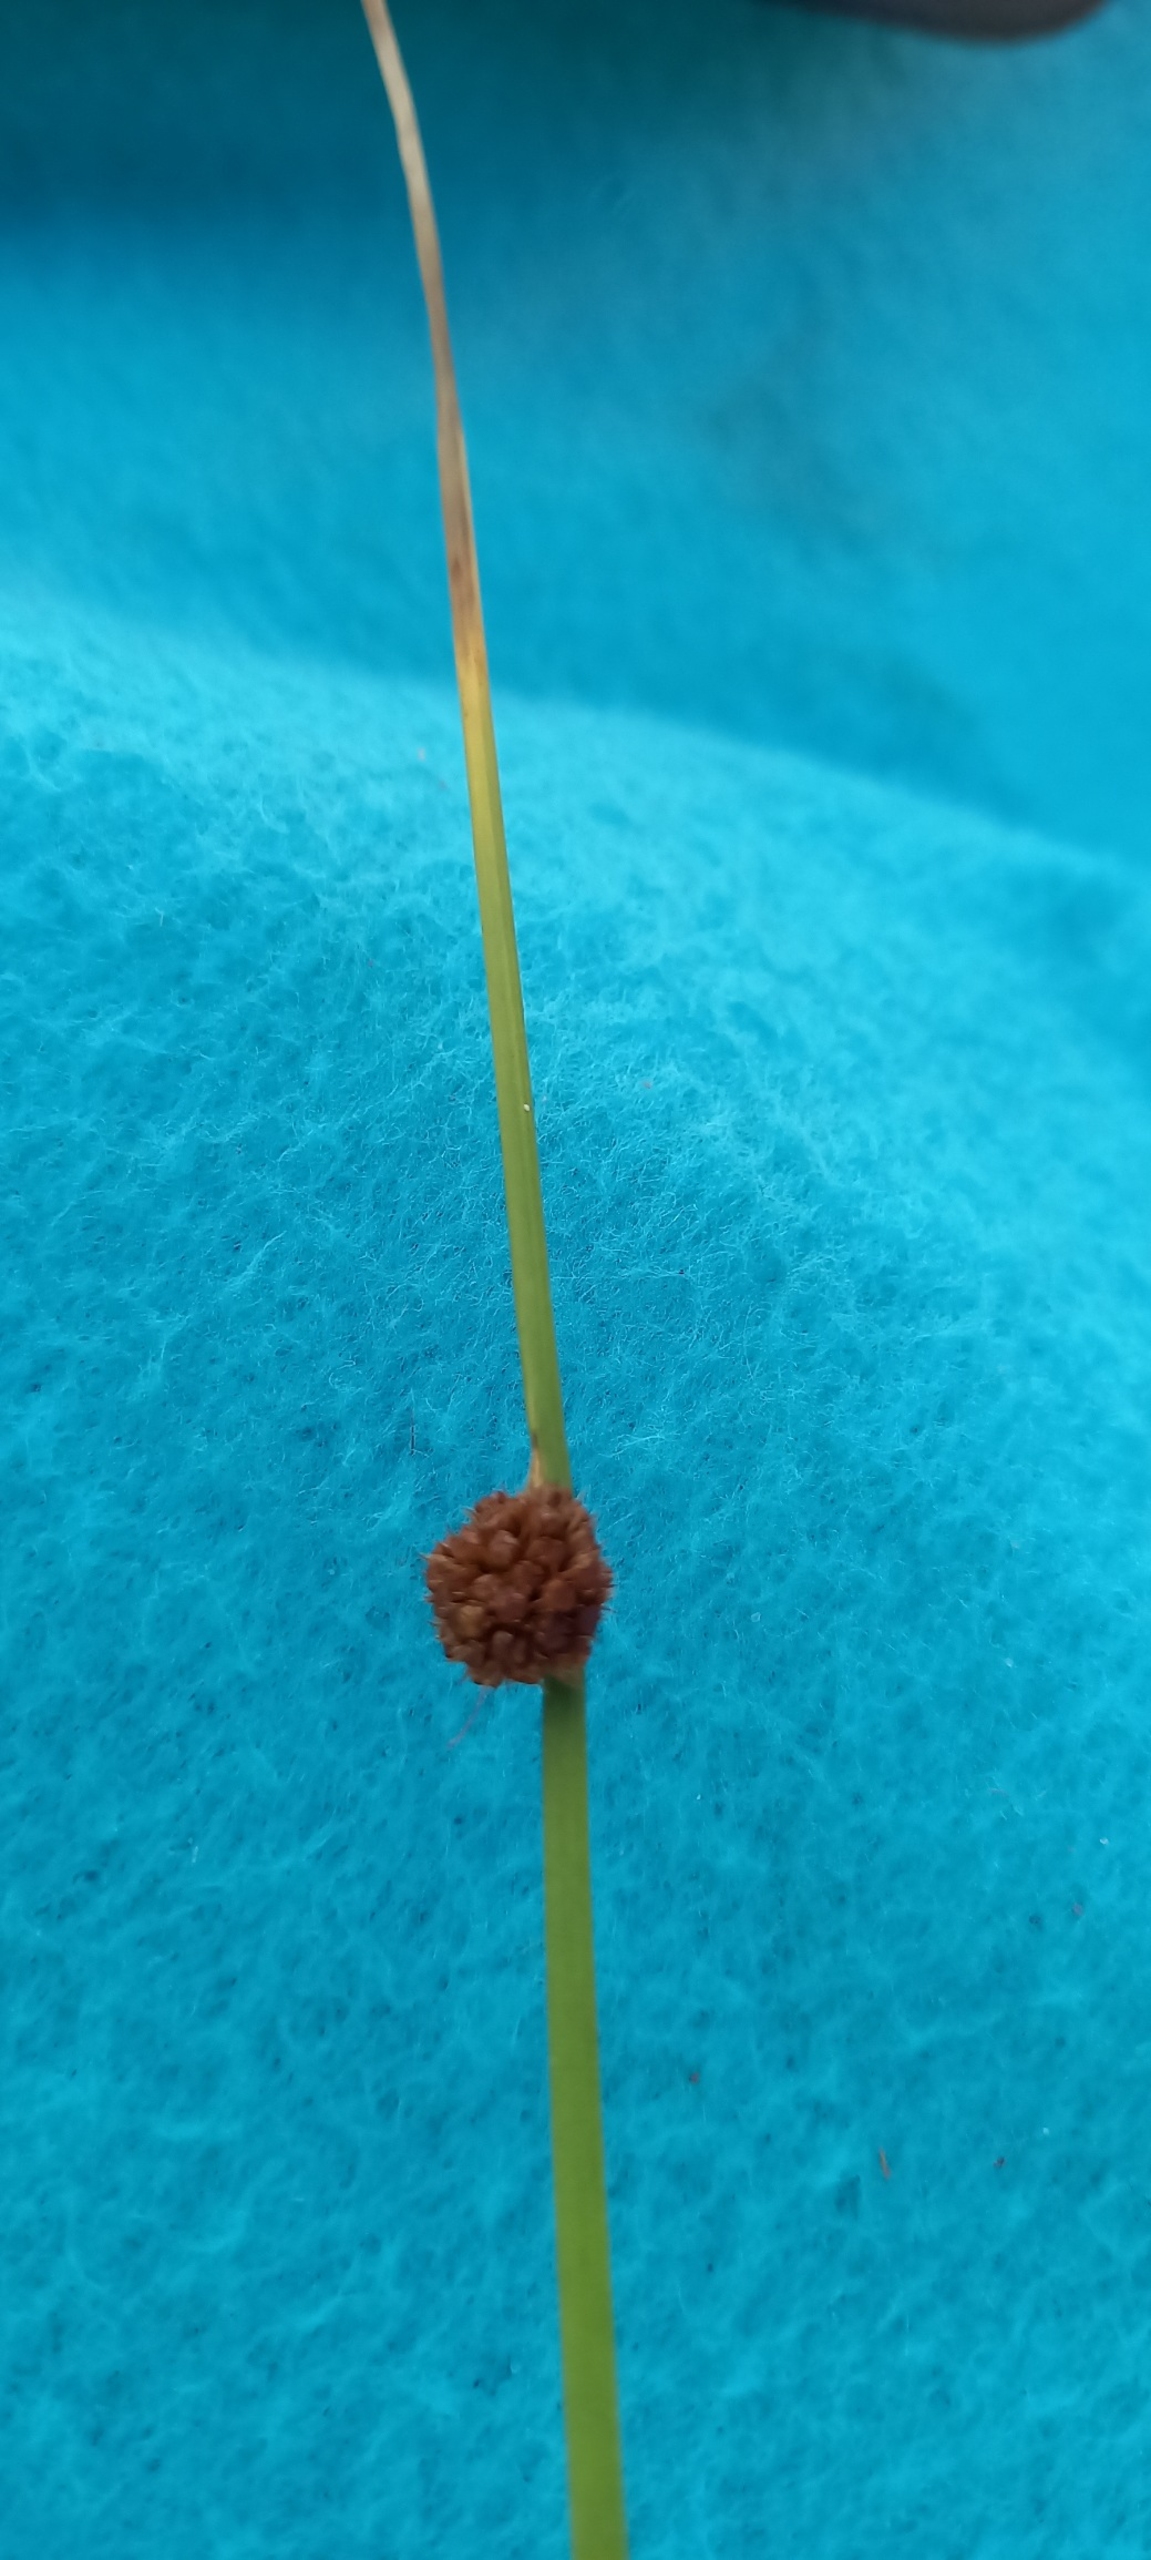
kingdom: Plantae
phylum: Tracheophyta
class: Liliopsida
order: Poales
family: Juncaceae
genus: Juncus
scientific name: Juncus conglomeratus
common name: Knop-siv
